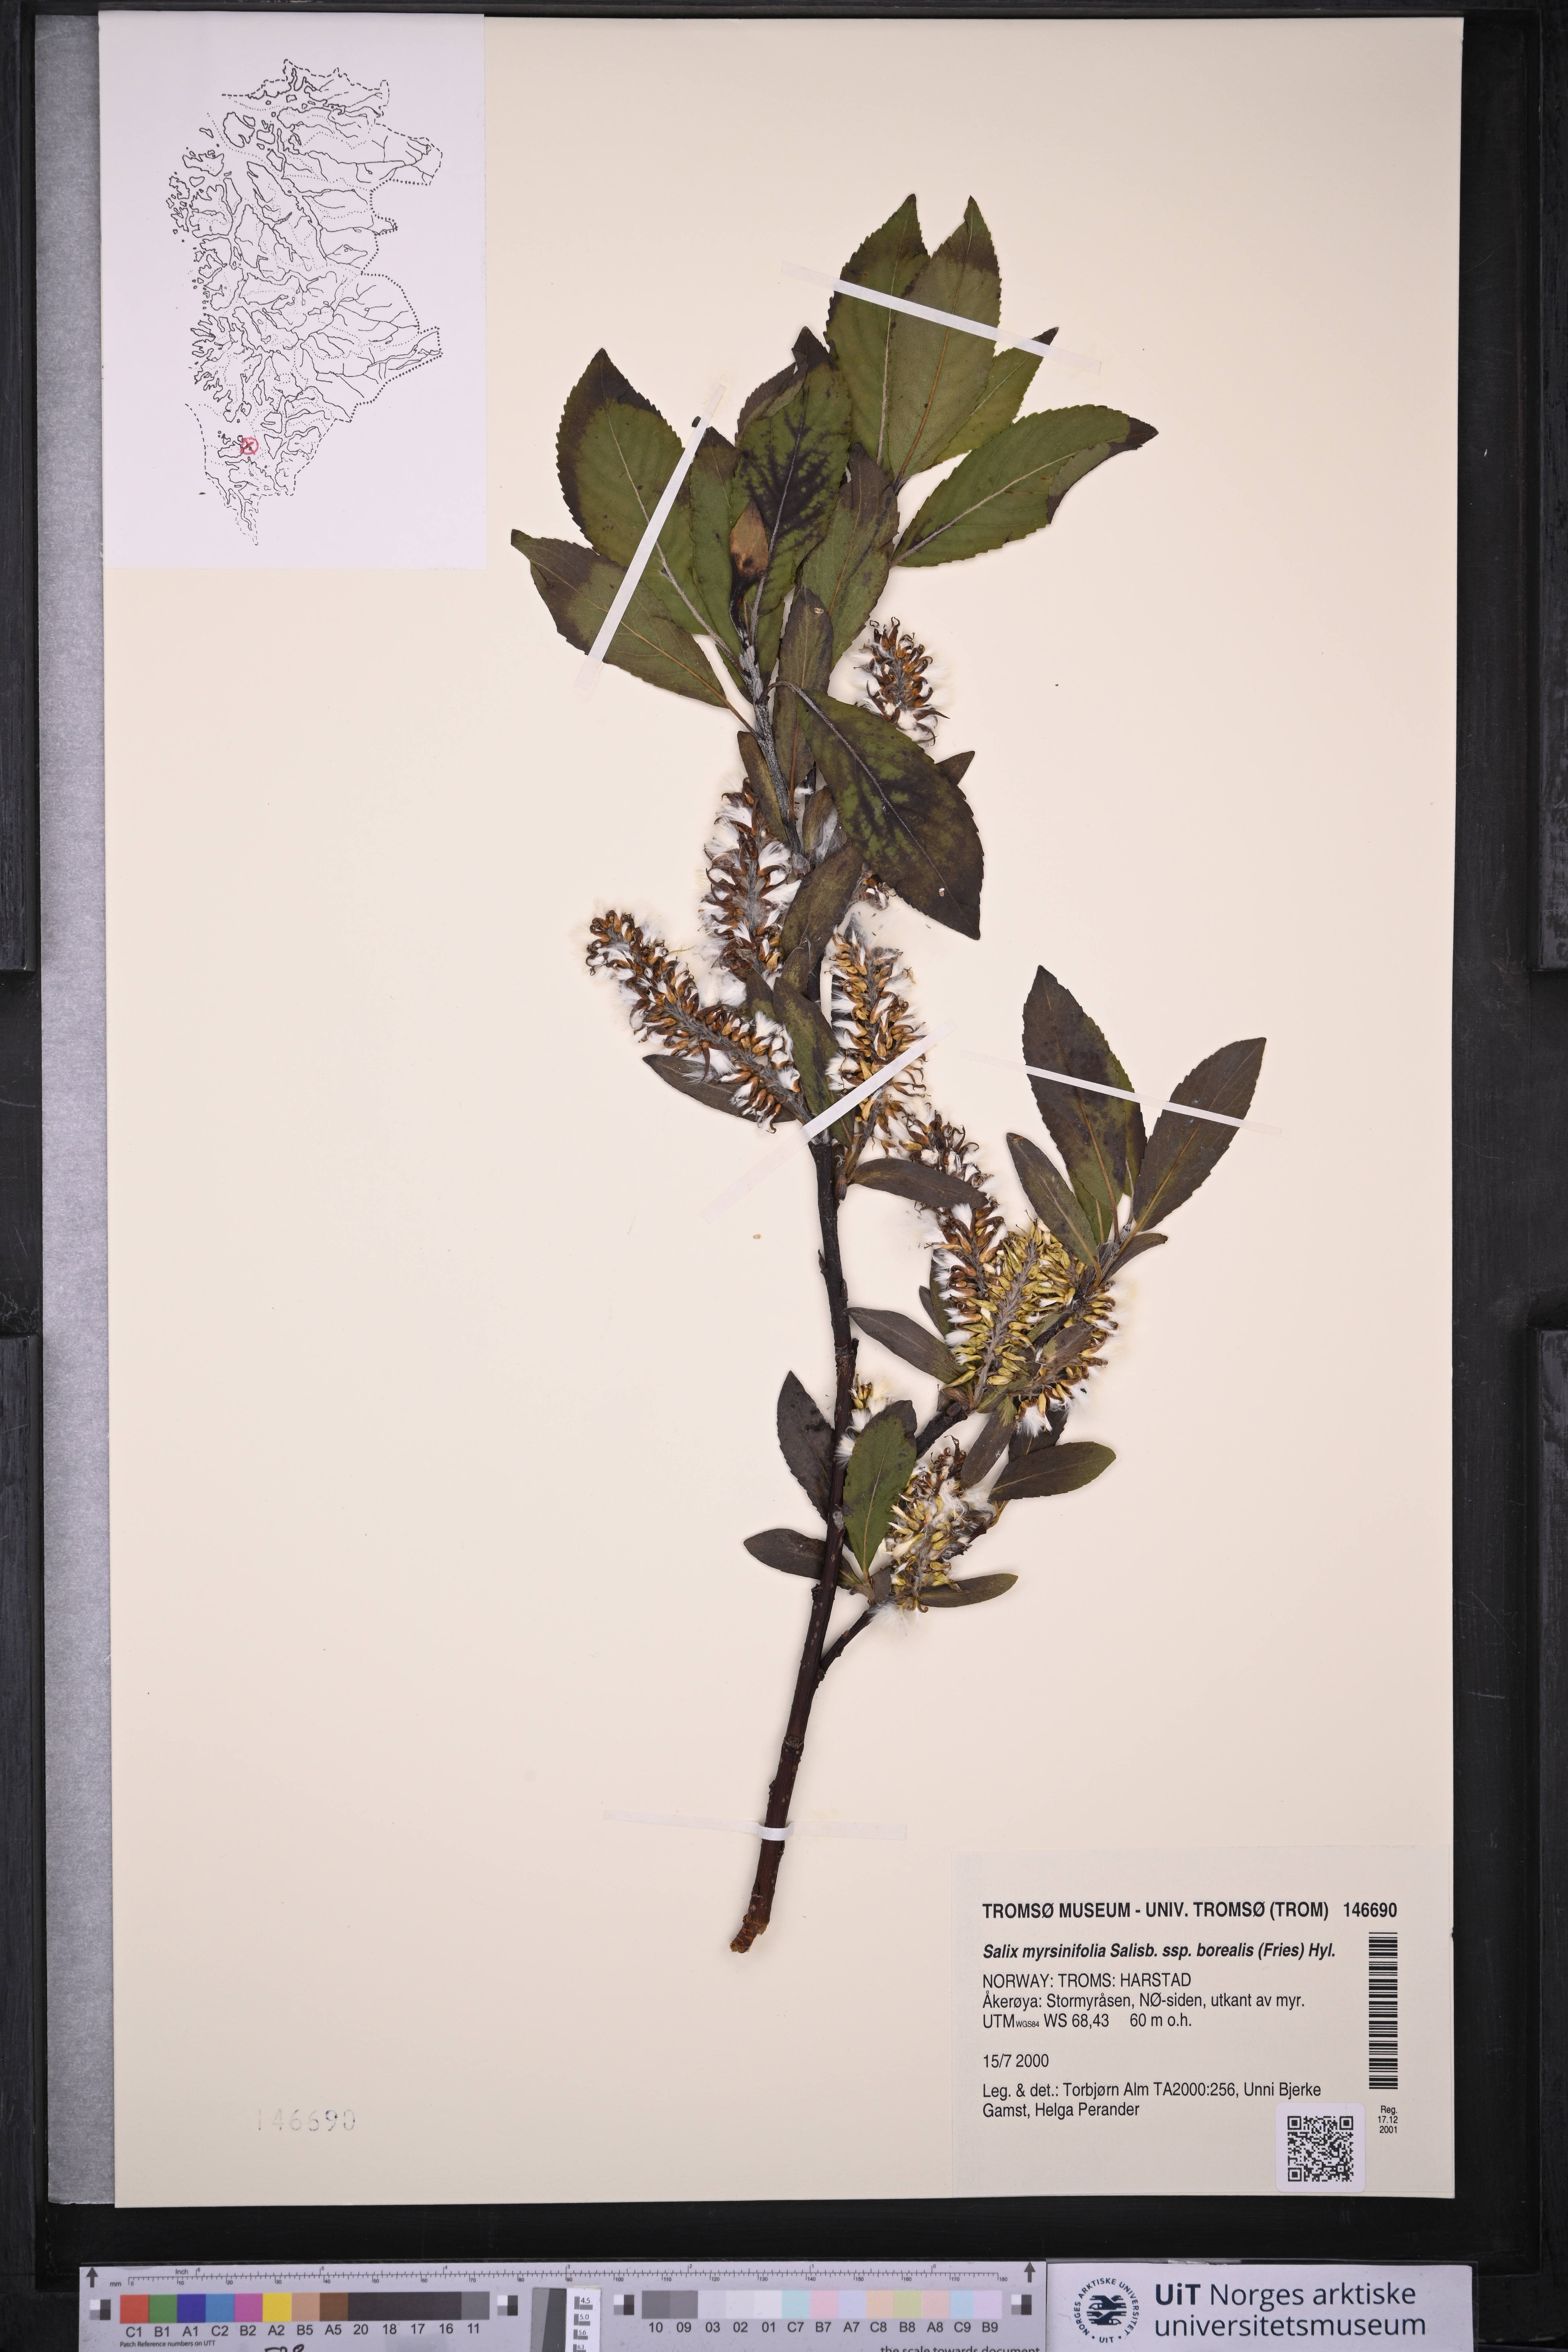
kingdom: Plantae
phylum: Tracheophyta
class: Magnoliopsida
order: Malpighiales
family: Salicaceae
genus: Salix
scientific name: Salix myrsinifolia
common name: Dark-leaved willow
